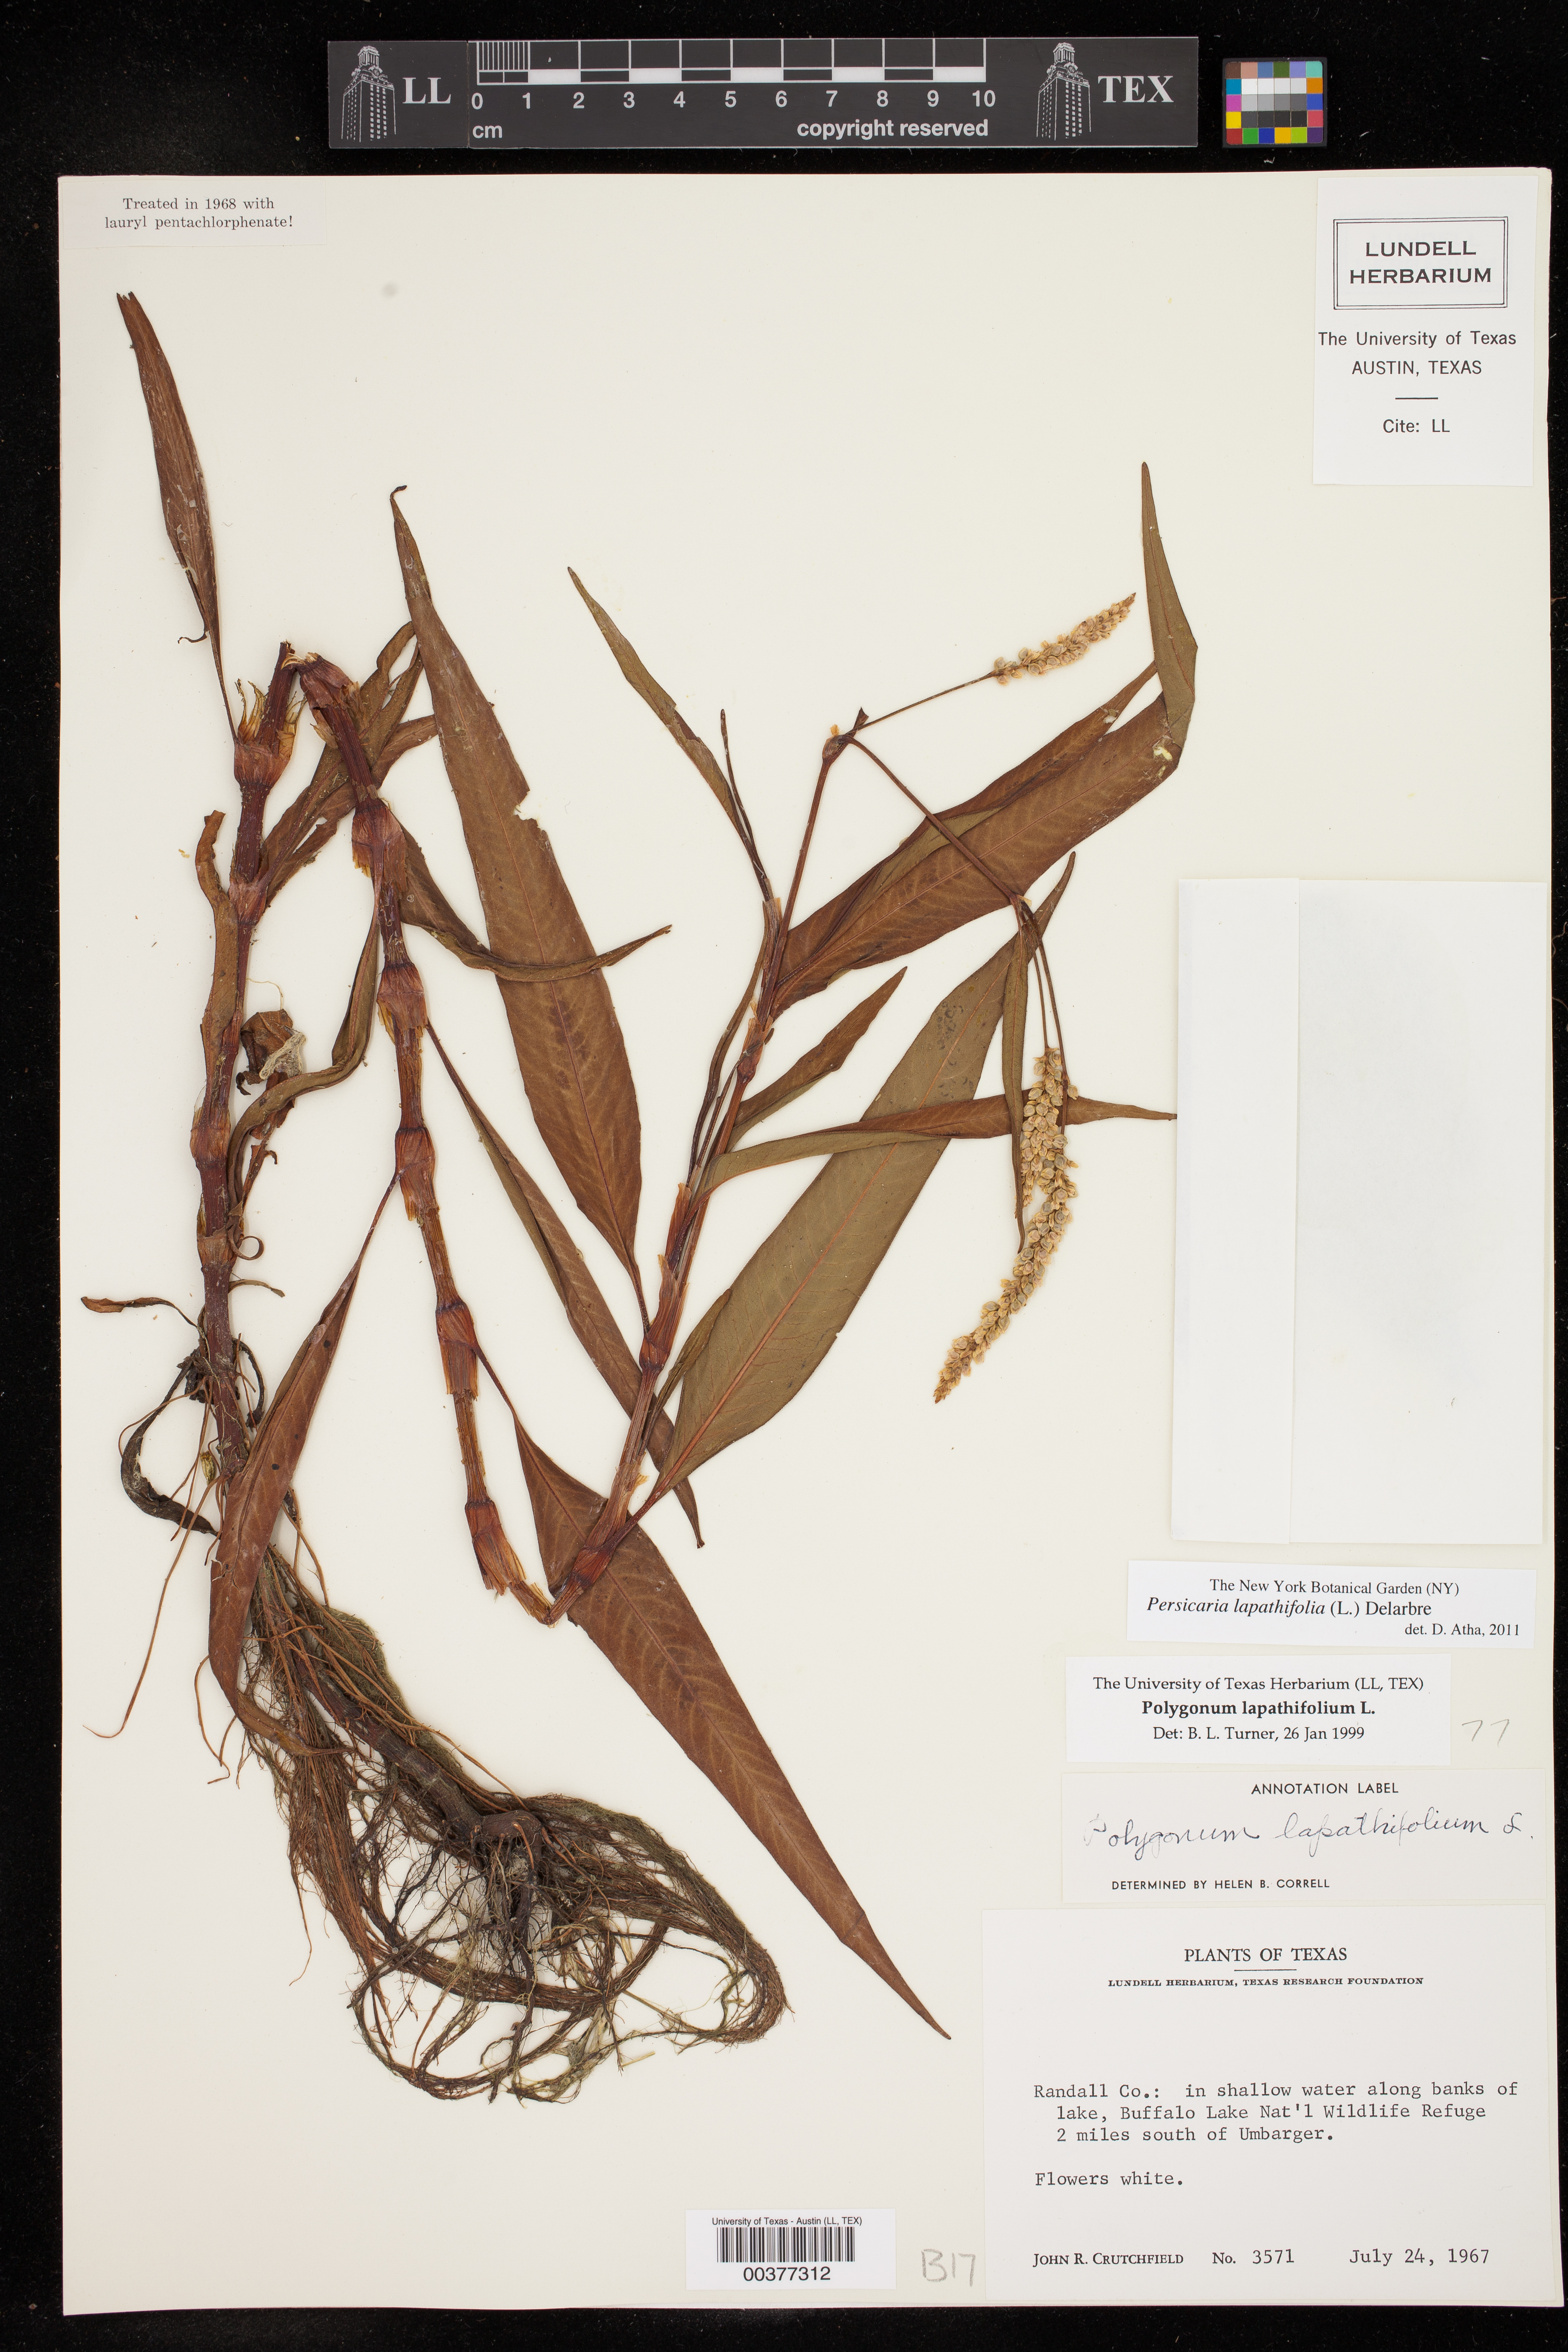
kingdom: Plantae
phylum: Tracheophyta
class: Magnoliopsida
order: Caryophyllales
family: Polygonaceae
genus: Persicaria
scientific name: Persicaria lapathifolia
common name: Curlytop knotweed
